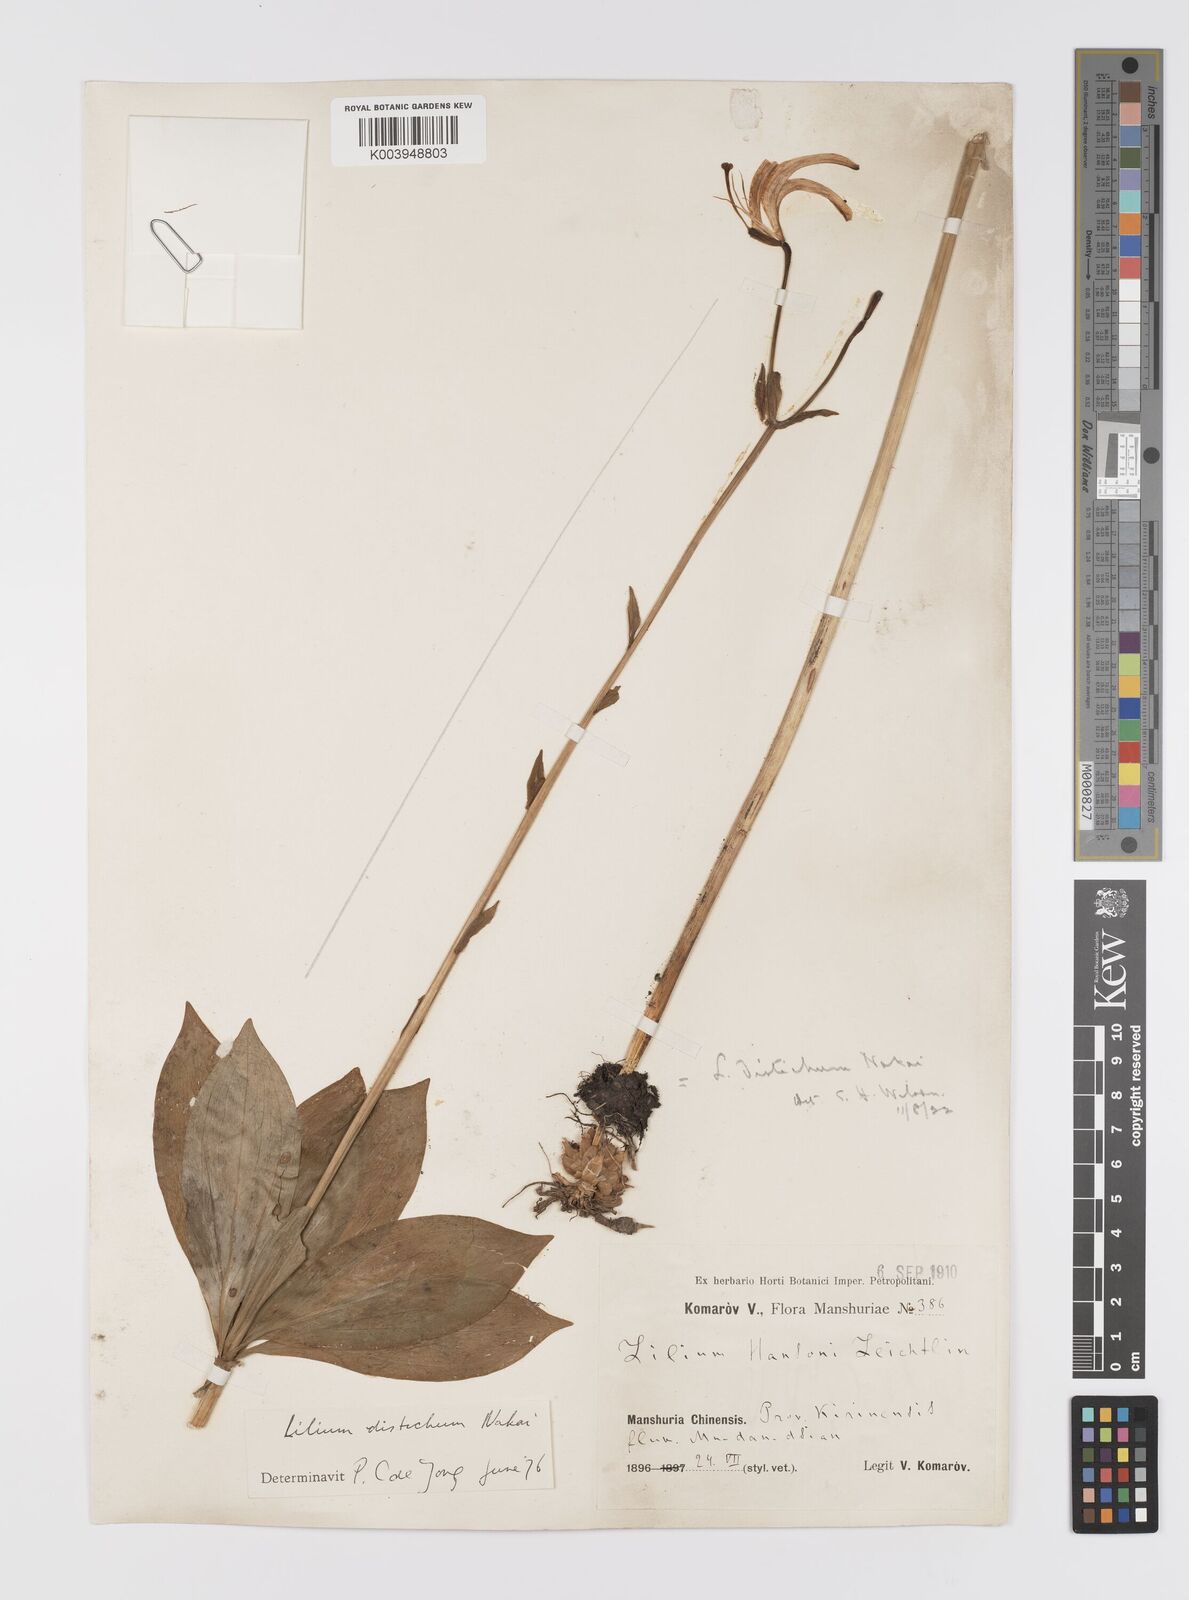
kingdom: Plantae
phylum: Tracheophyta
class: Liliopsida
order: Liliales
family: Liliaceae
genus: Lilium
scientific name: Lilium distichum
